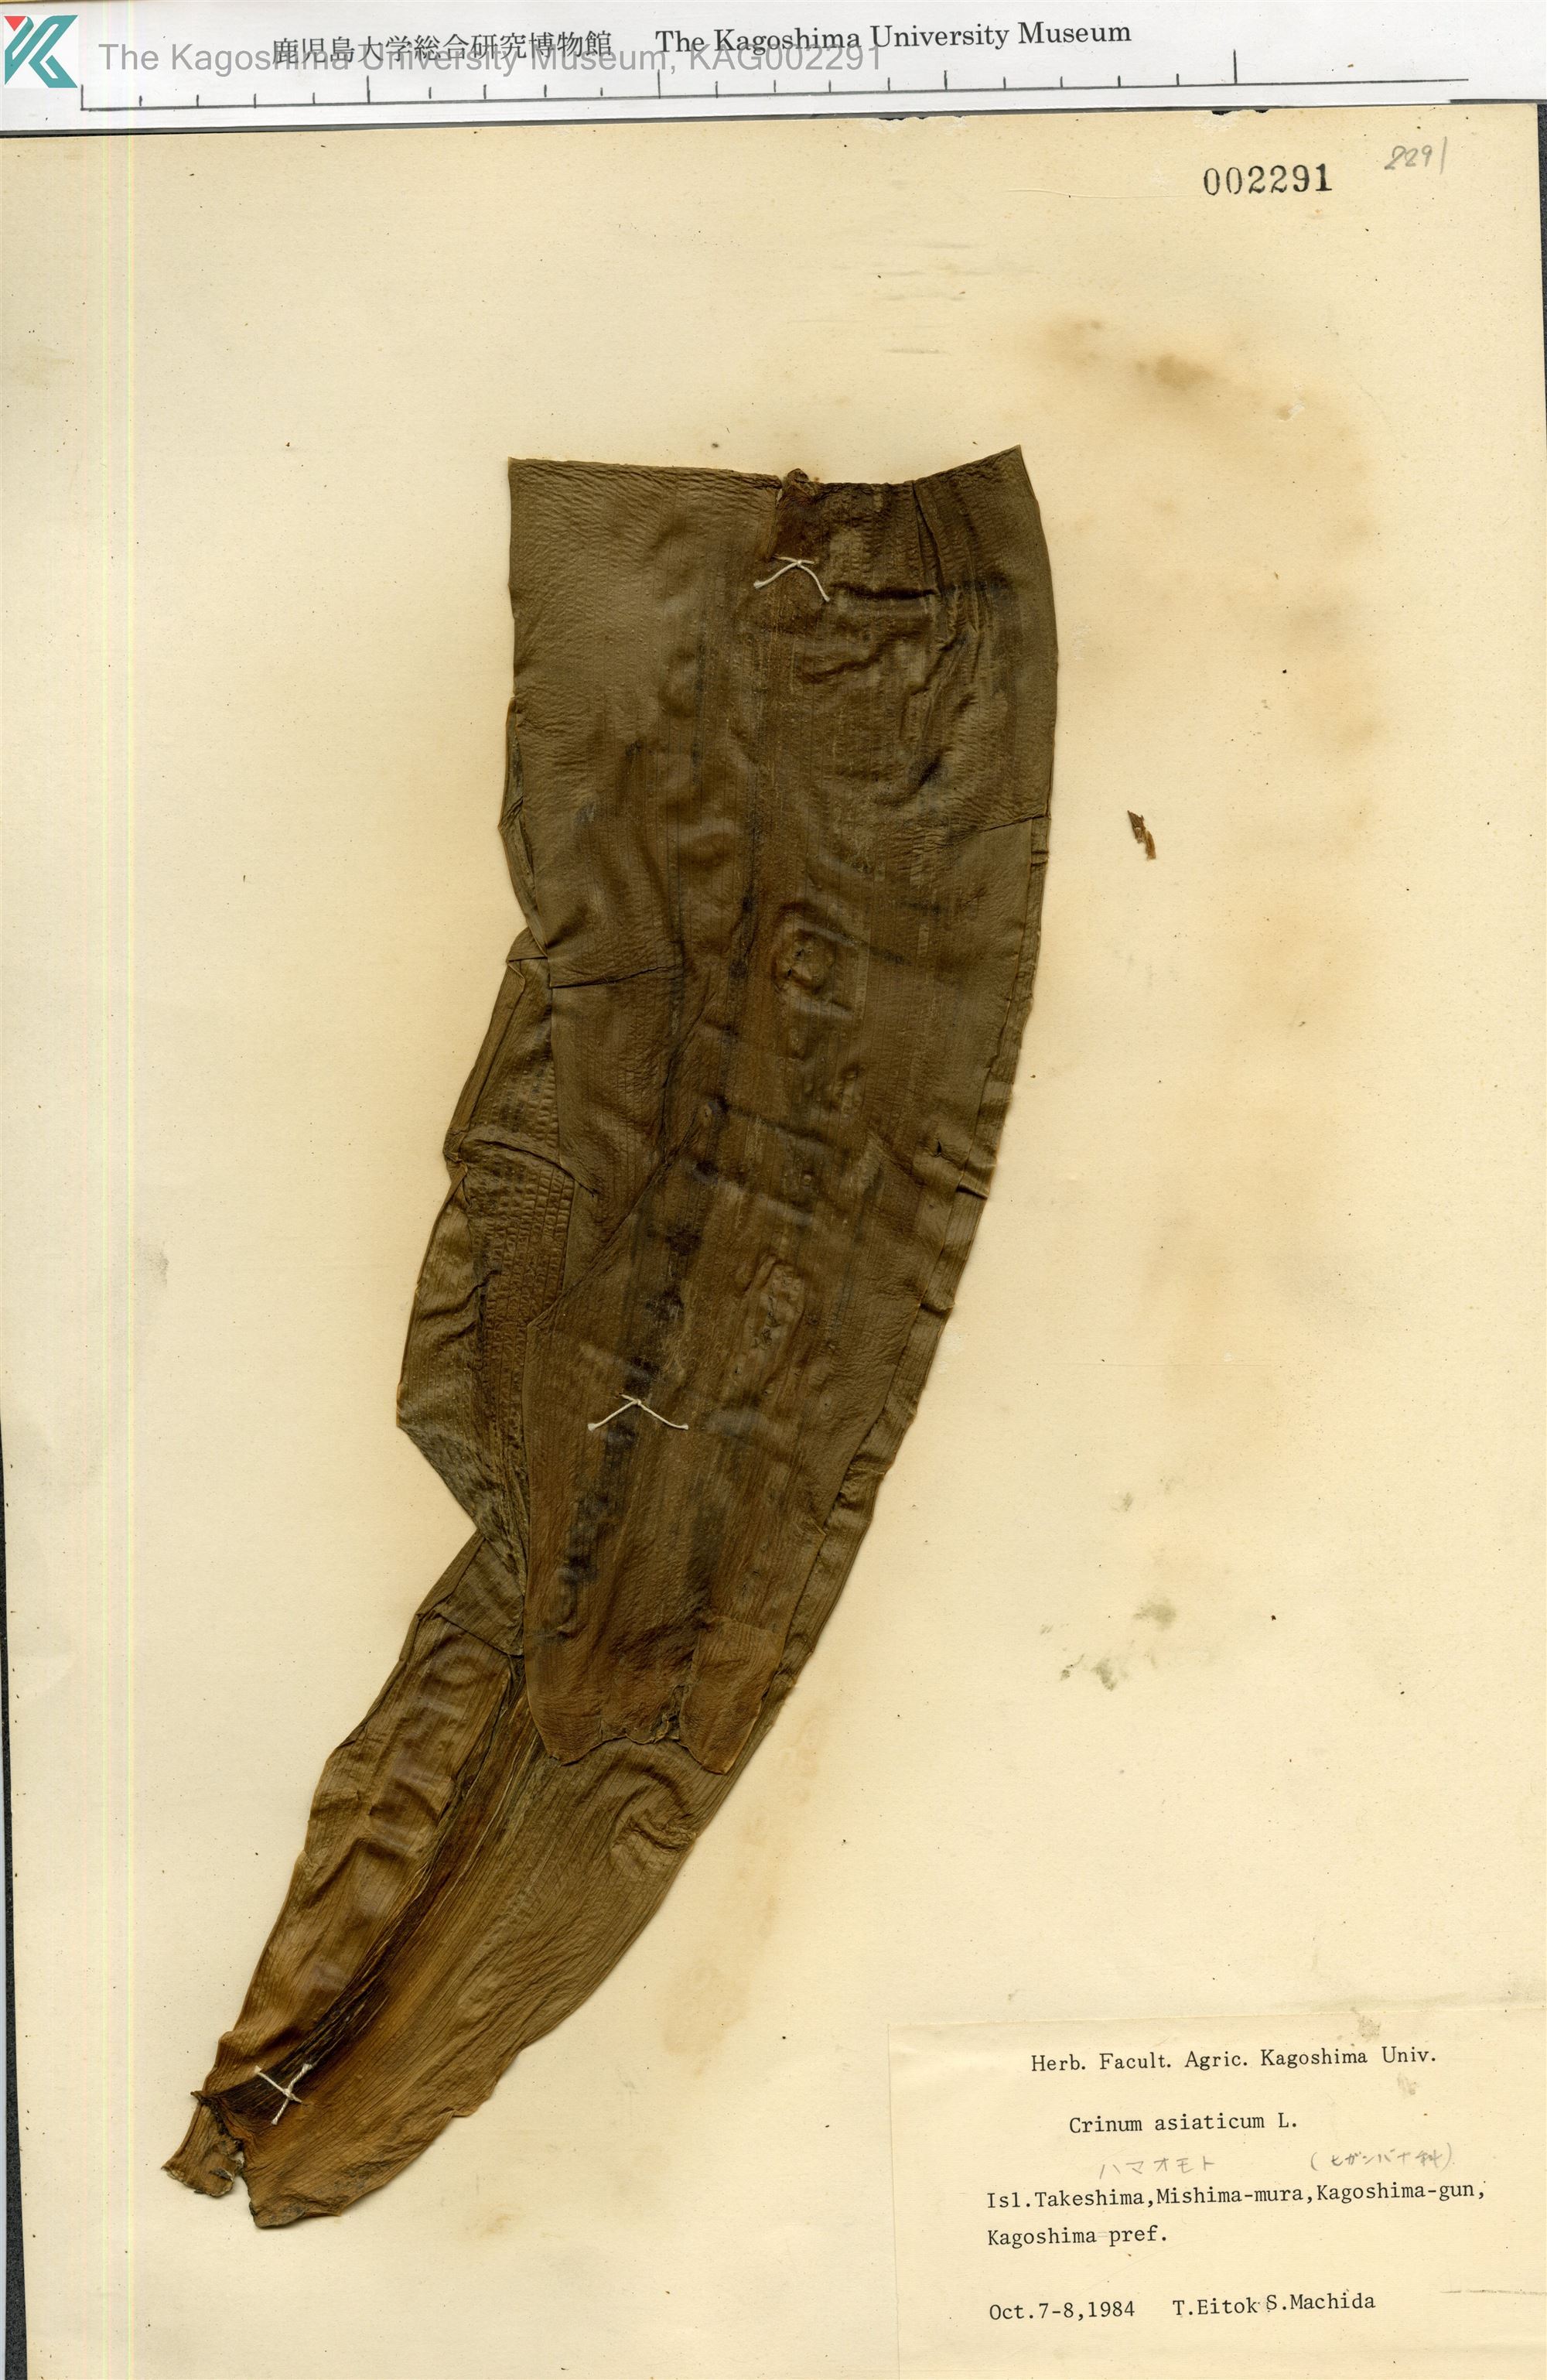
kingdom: Plantae
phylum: Tracheophyta
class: Liliopsida
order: Asparagales
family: Amaryllidaceae
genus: Crinum
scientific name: Crinum asiaticum
